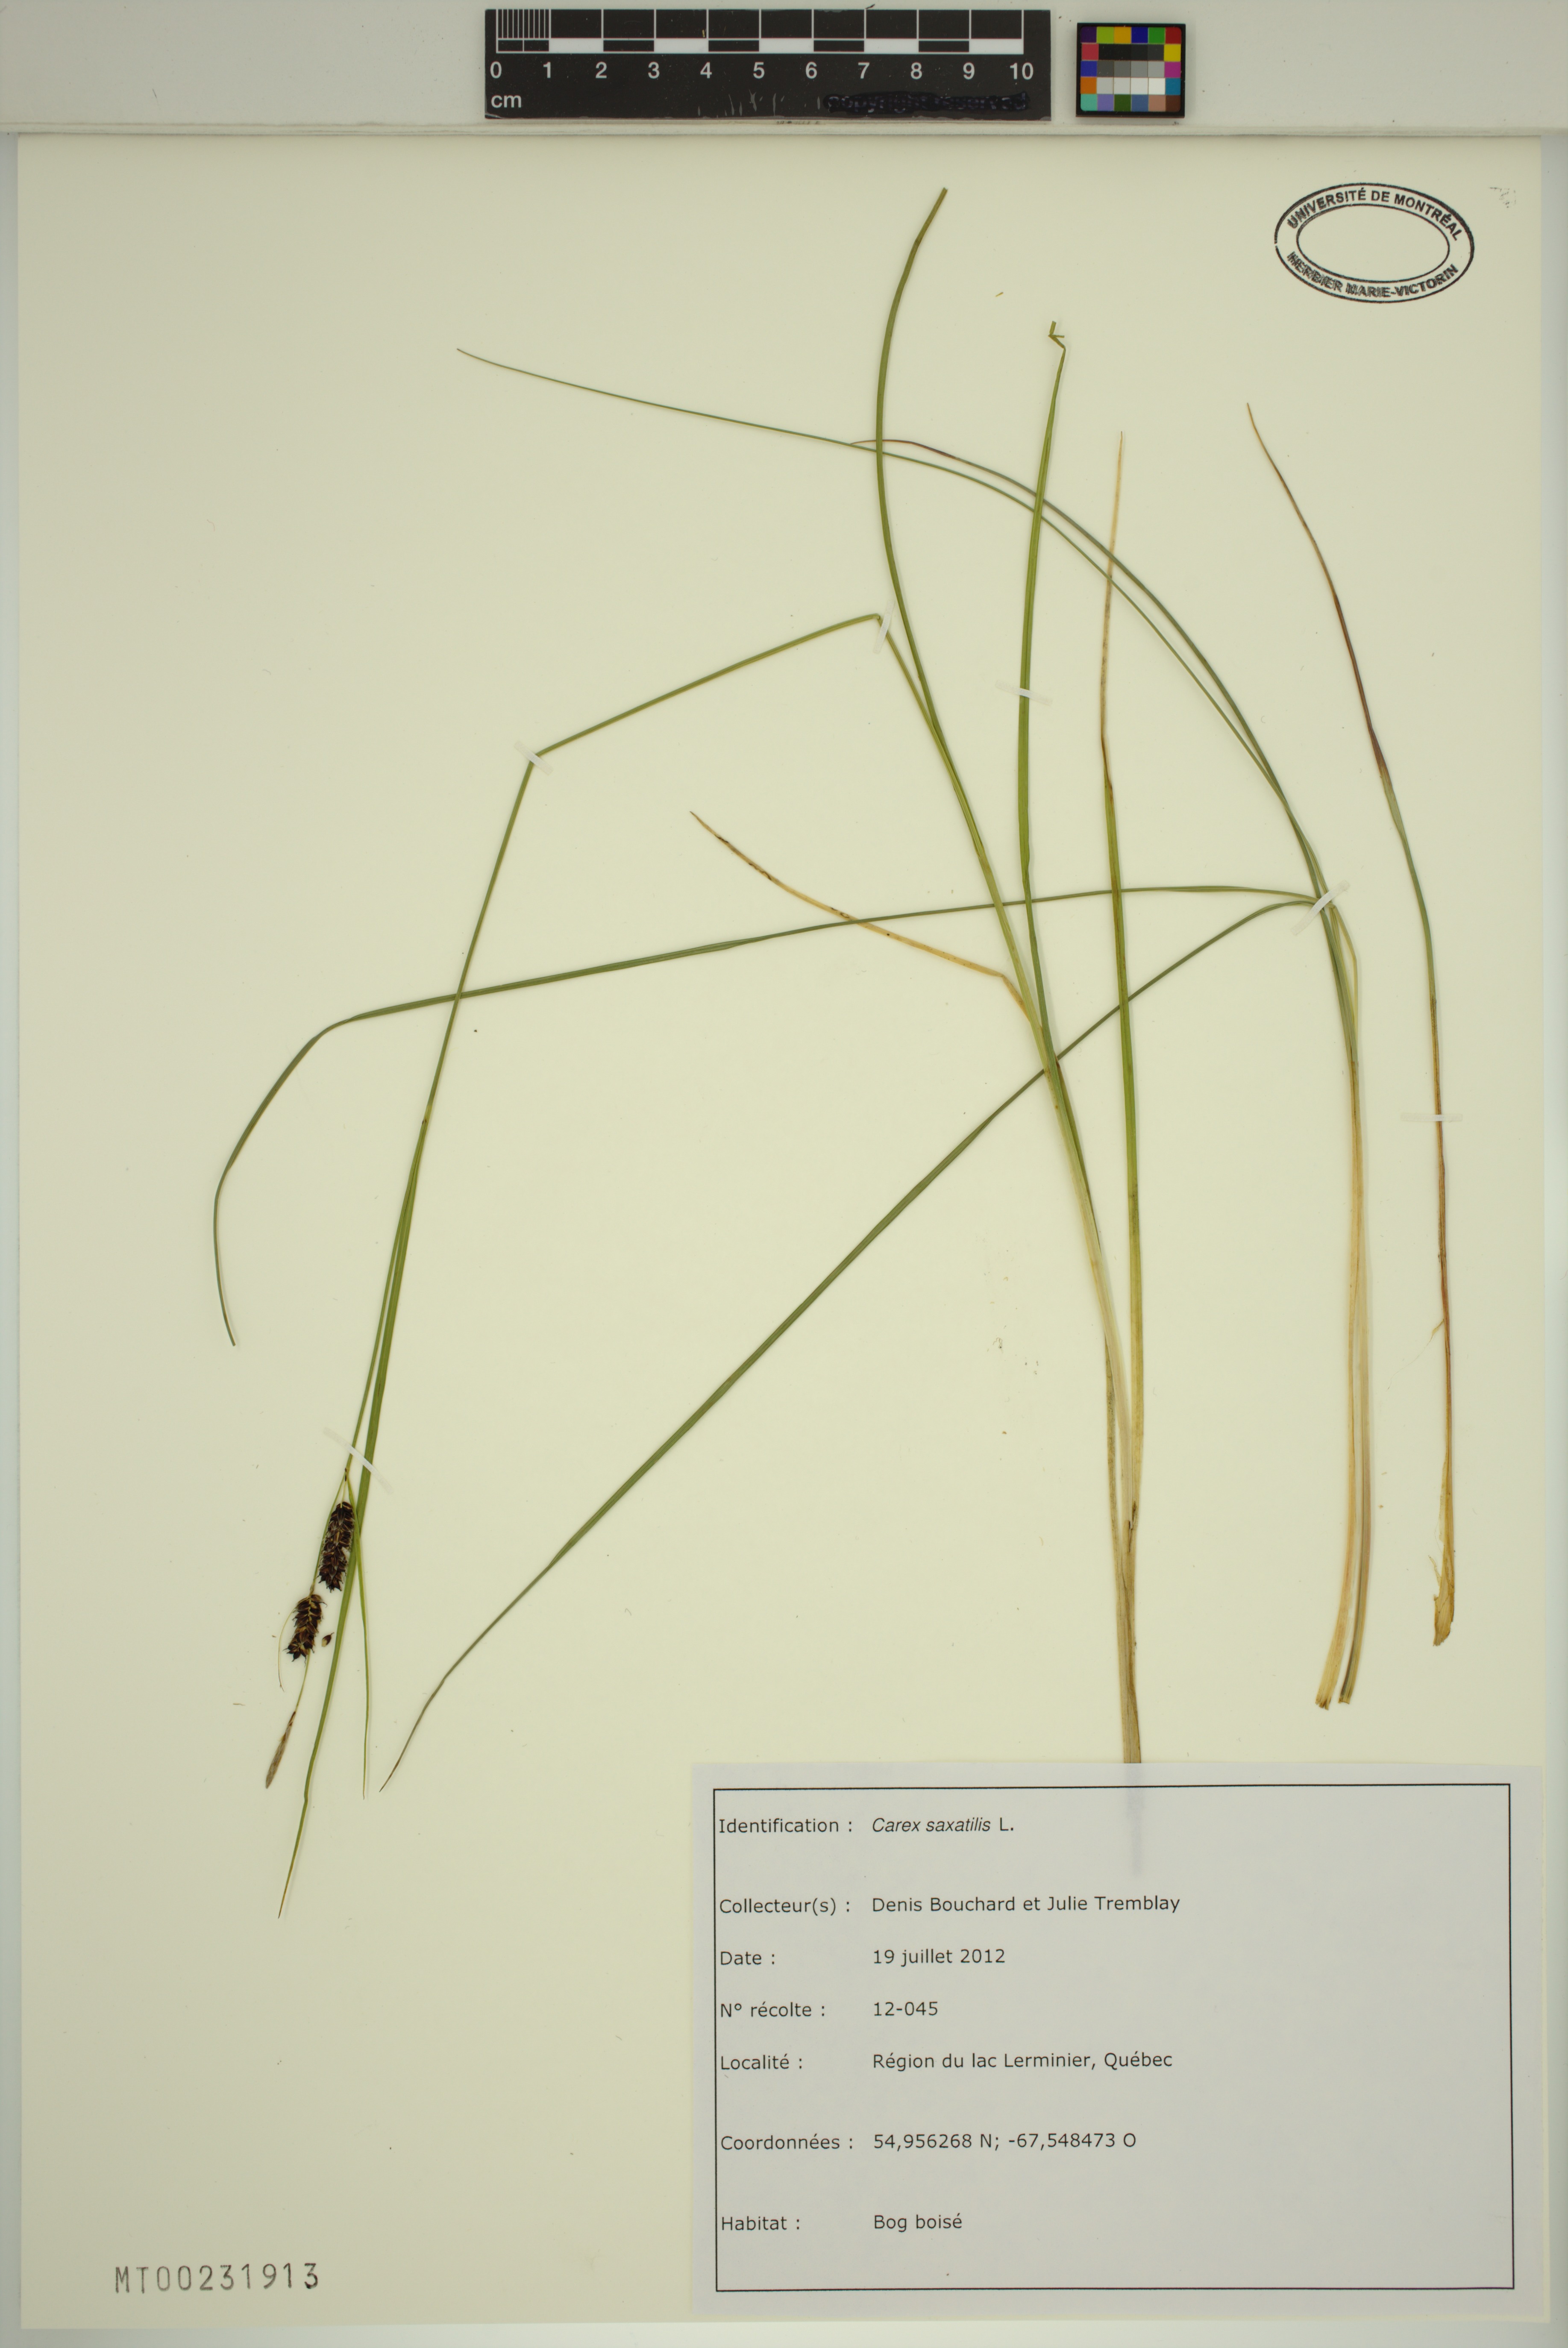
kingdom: Plantae
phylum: Tracheophyta
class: Liliopsida
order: Poales
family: Cyperaceae
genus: Carex
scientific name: Carex saxatilis
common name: Russet sedge
